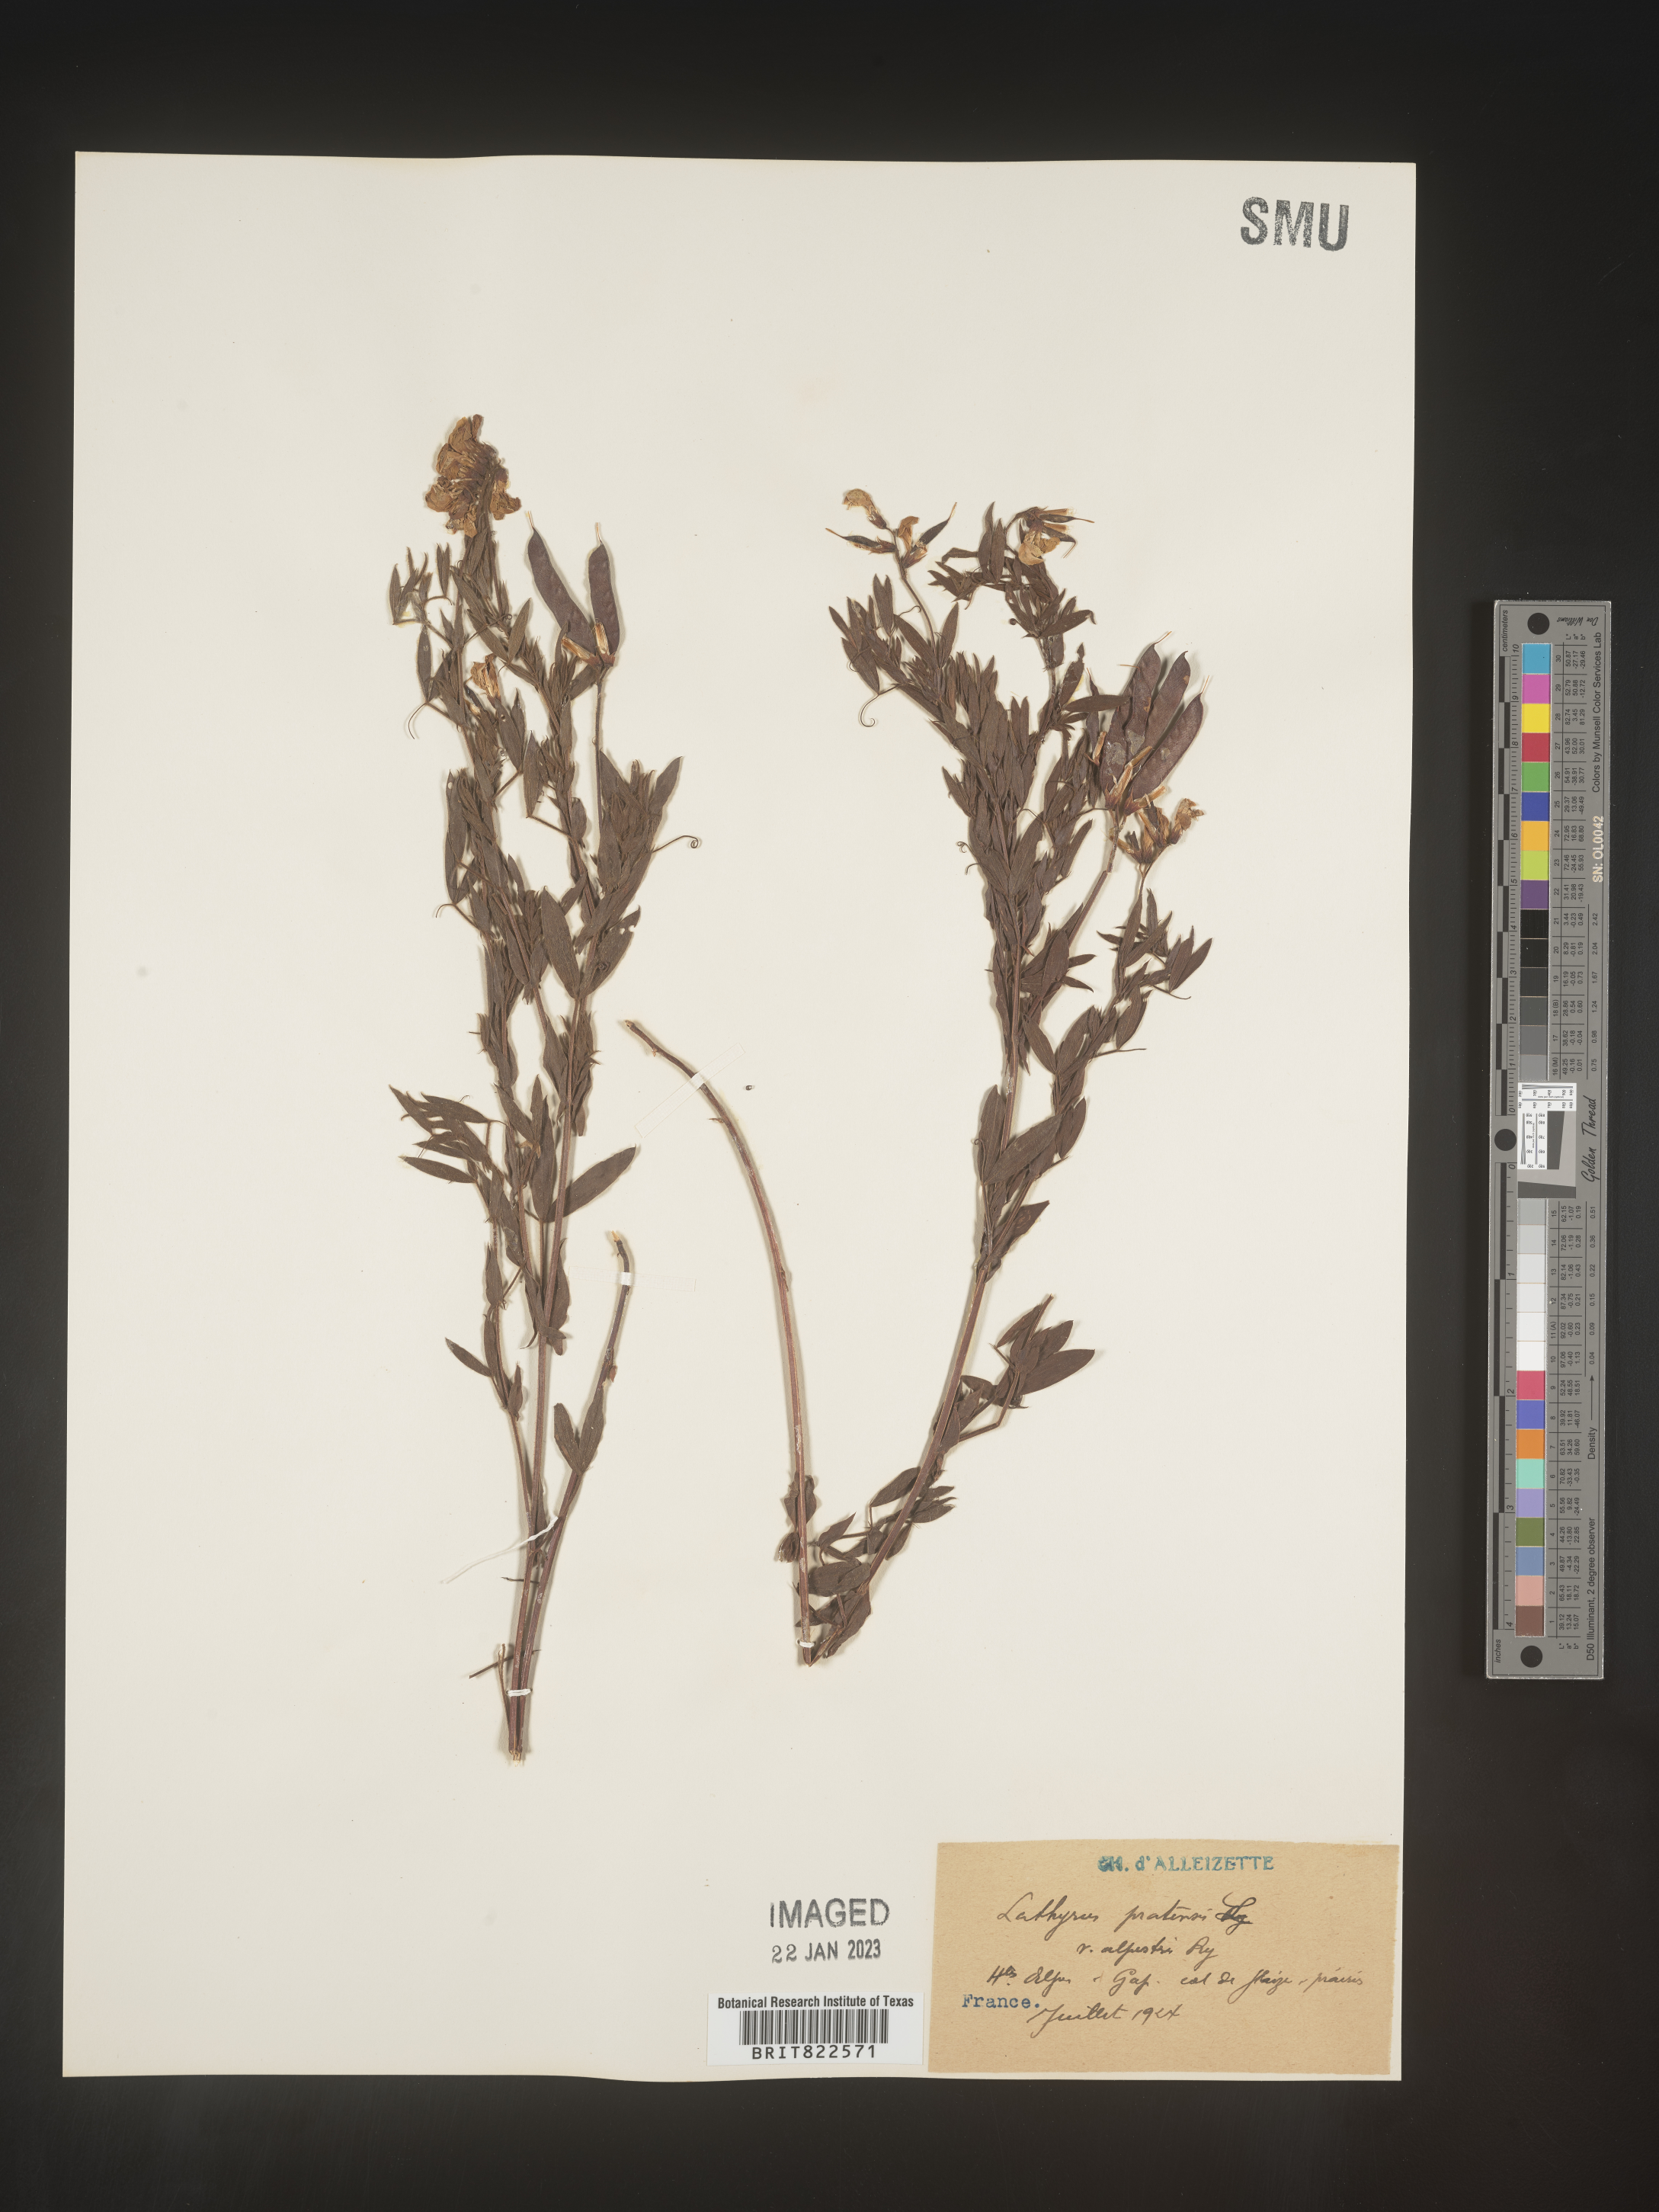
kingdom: Plantae
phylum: Tracheophyta
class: Magnoliopsida
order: Fabales
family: Fabaceae
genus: Lathyrus
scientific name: Lathyrus
